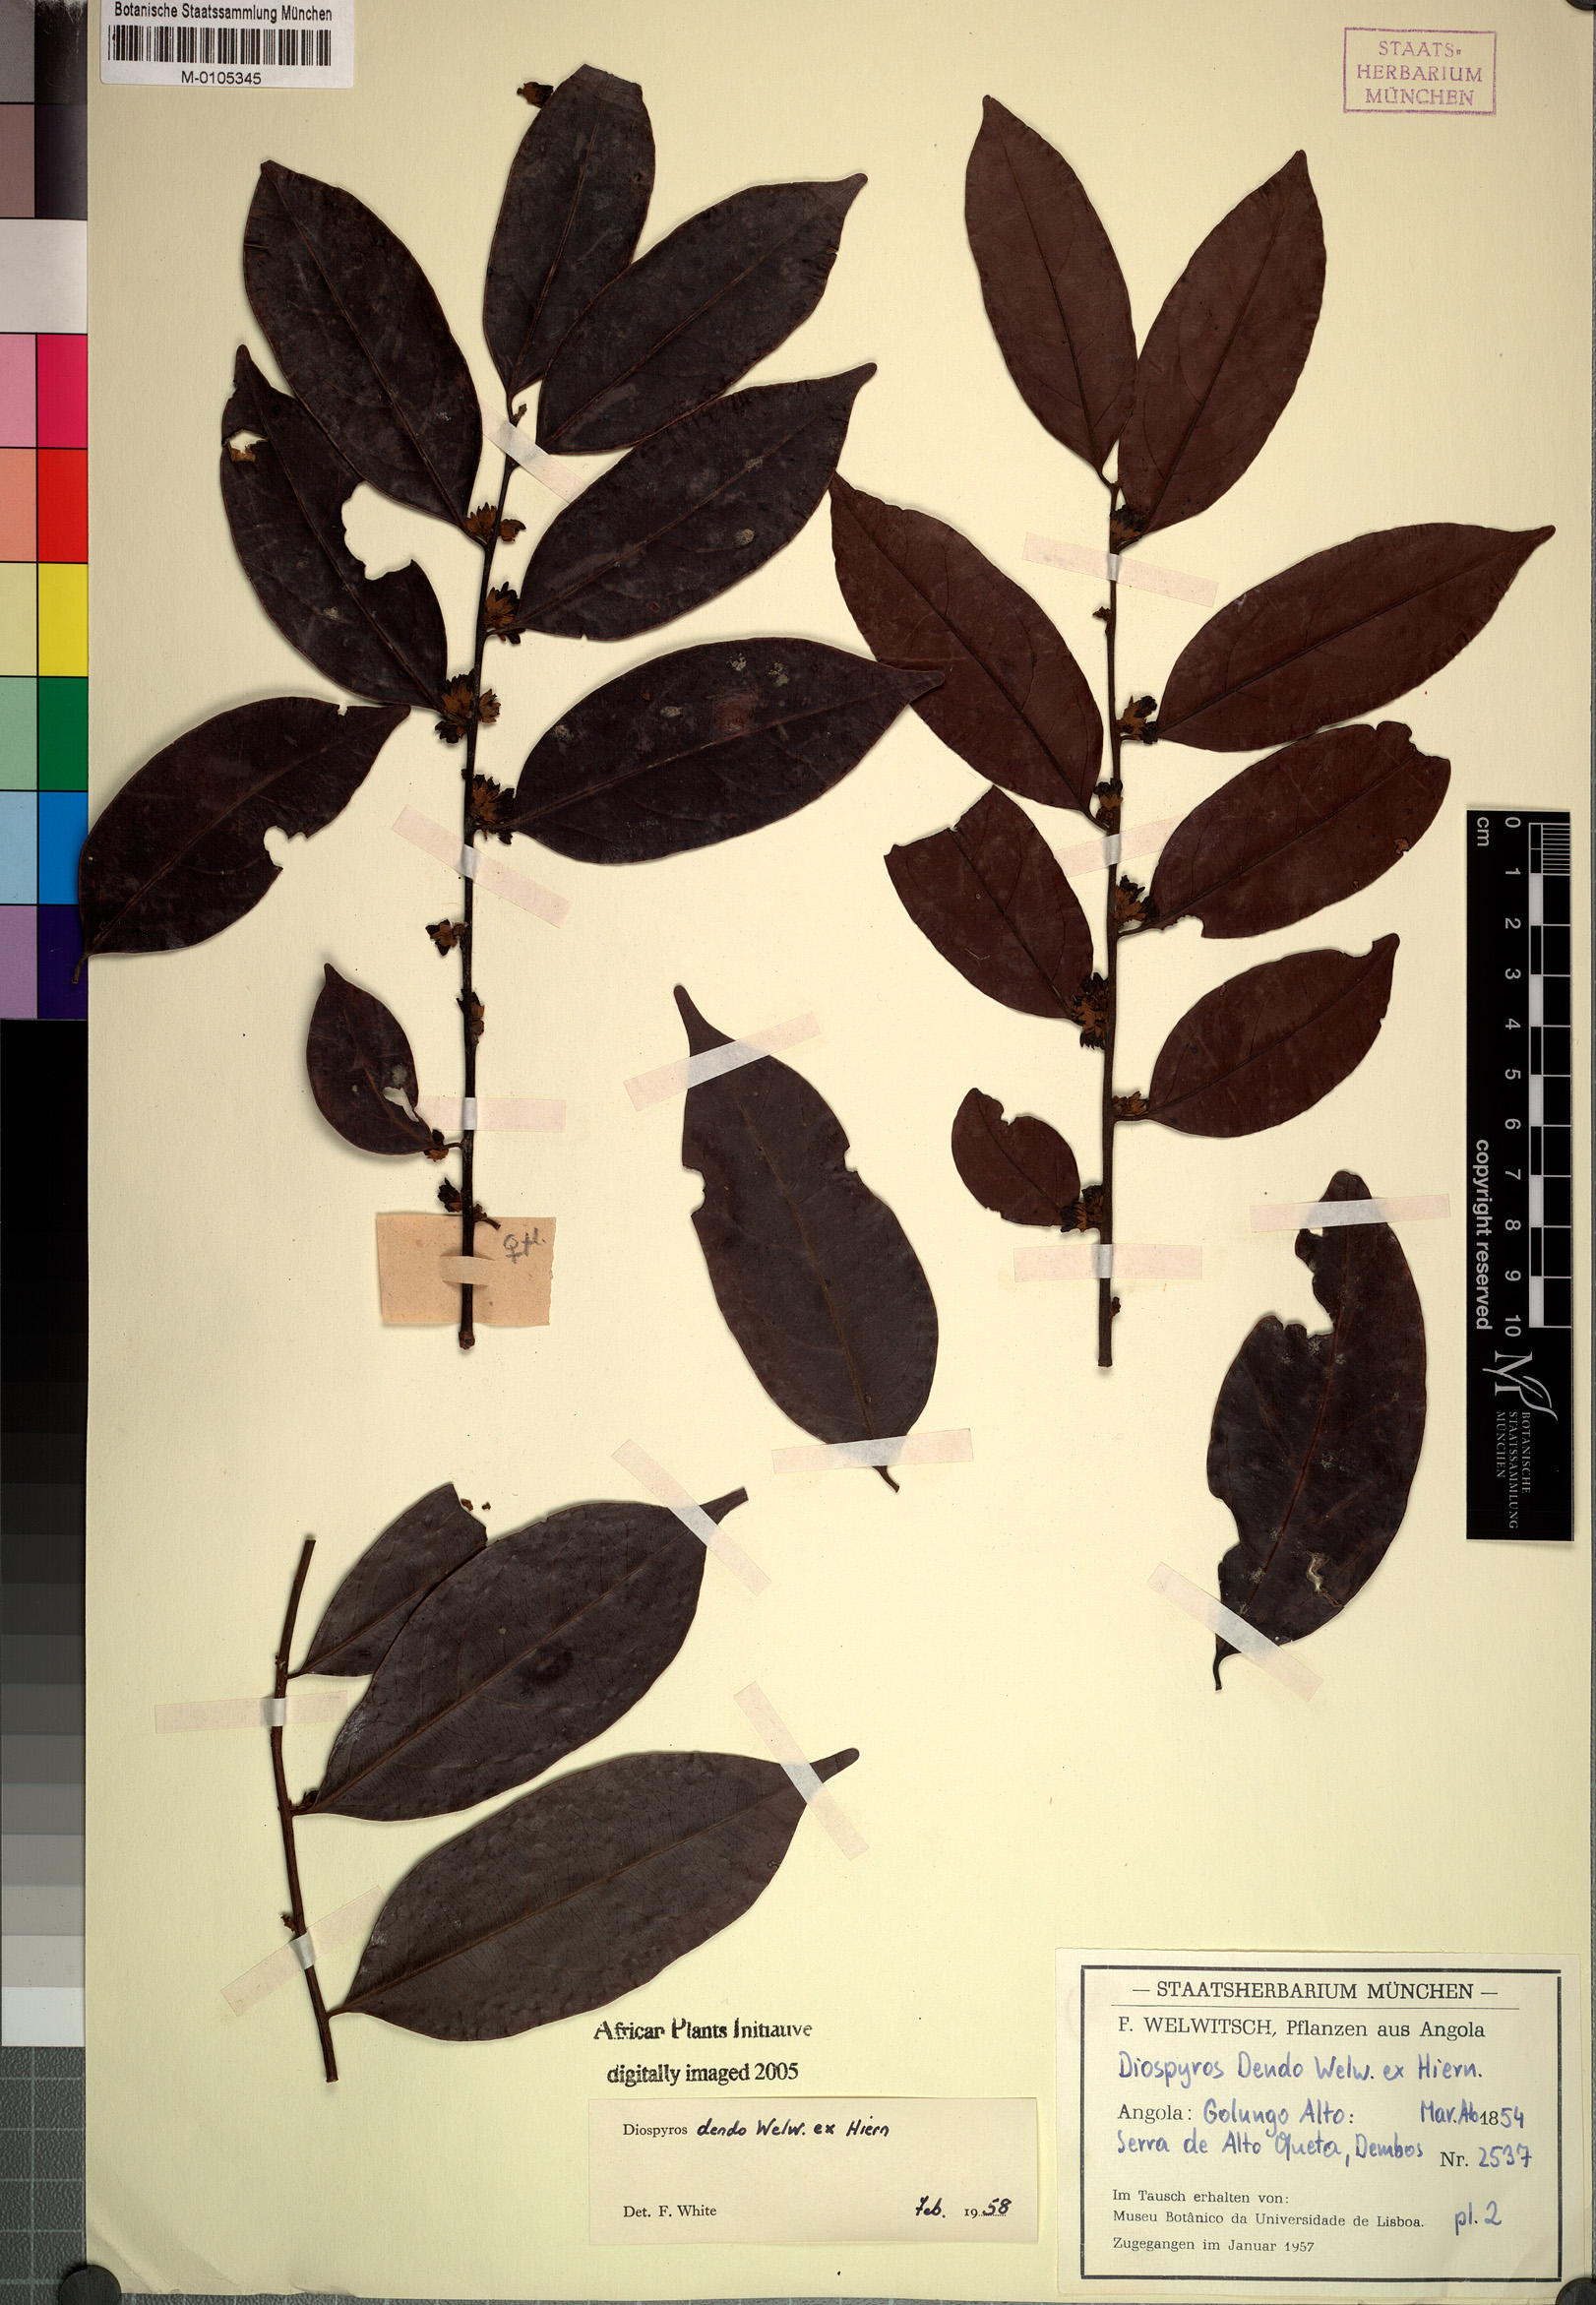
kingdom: Plantae
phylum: Tracheophyta
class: Magnoliopsida
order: Ericales
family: Ebenaceae
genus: Diospyros
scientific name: Diospyros dendo
